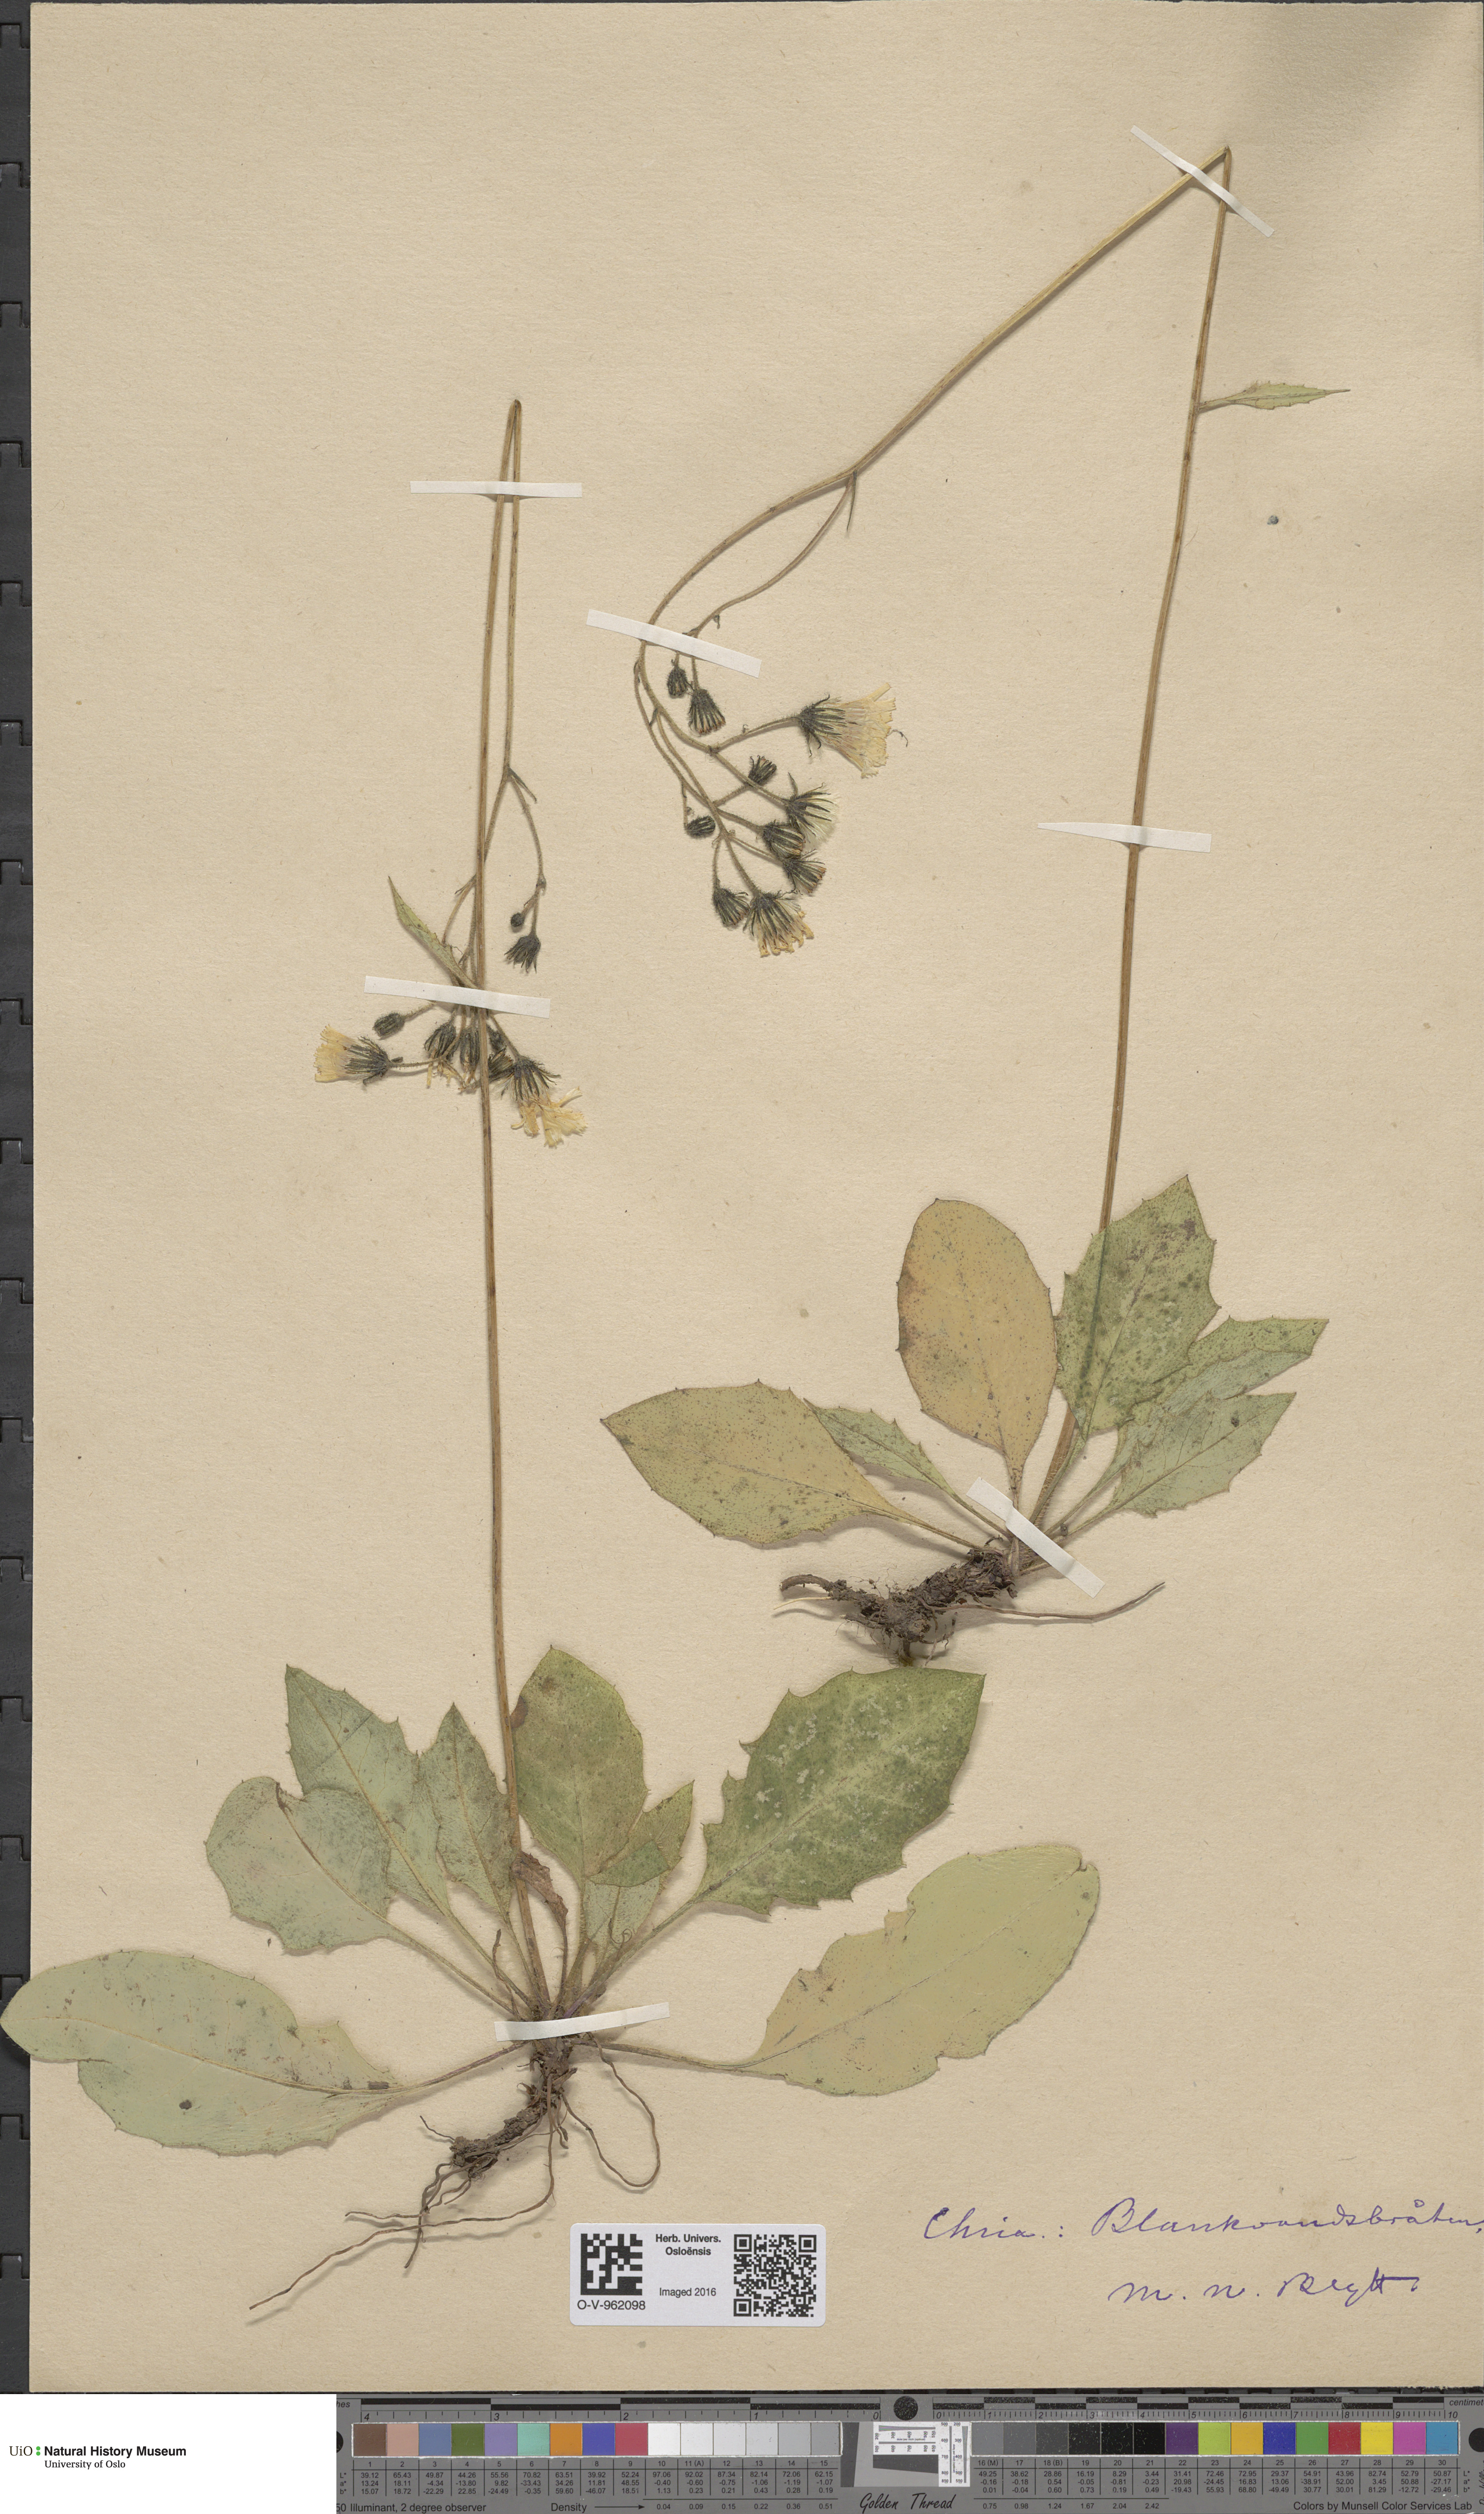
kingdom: Plantae
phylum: Tracheophyta
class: Magnoliopsida
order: Asterales
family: Asteraceae
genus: Hieracium
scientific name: Hieracium
